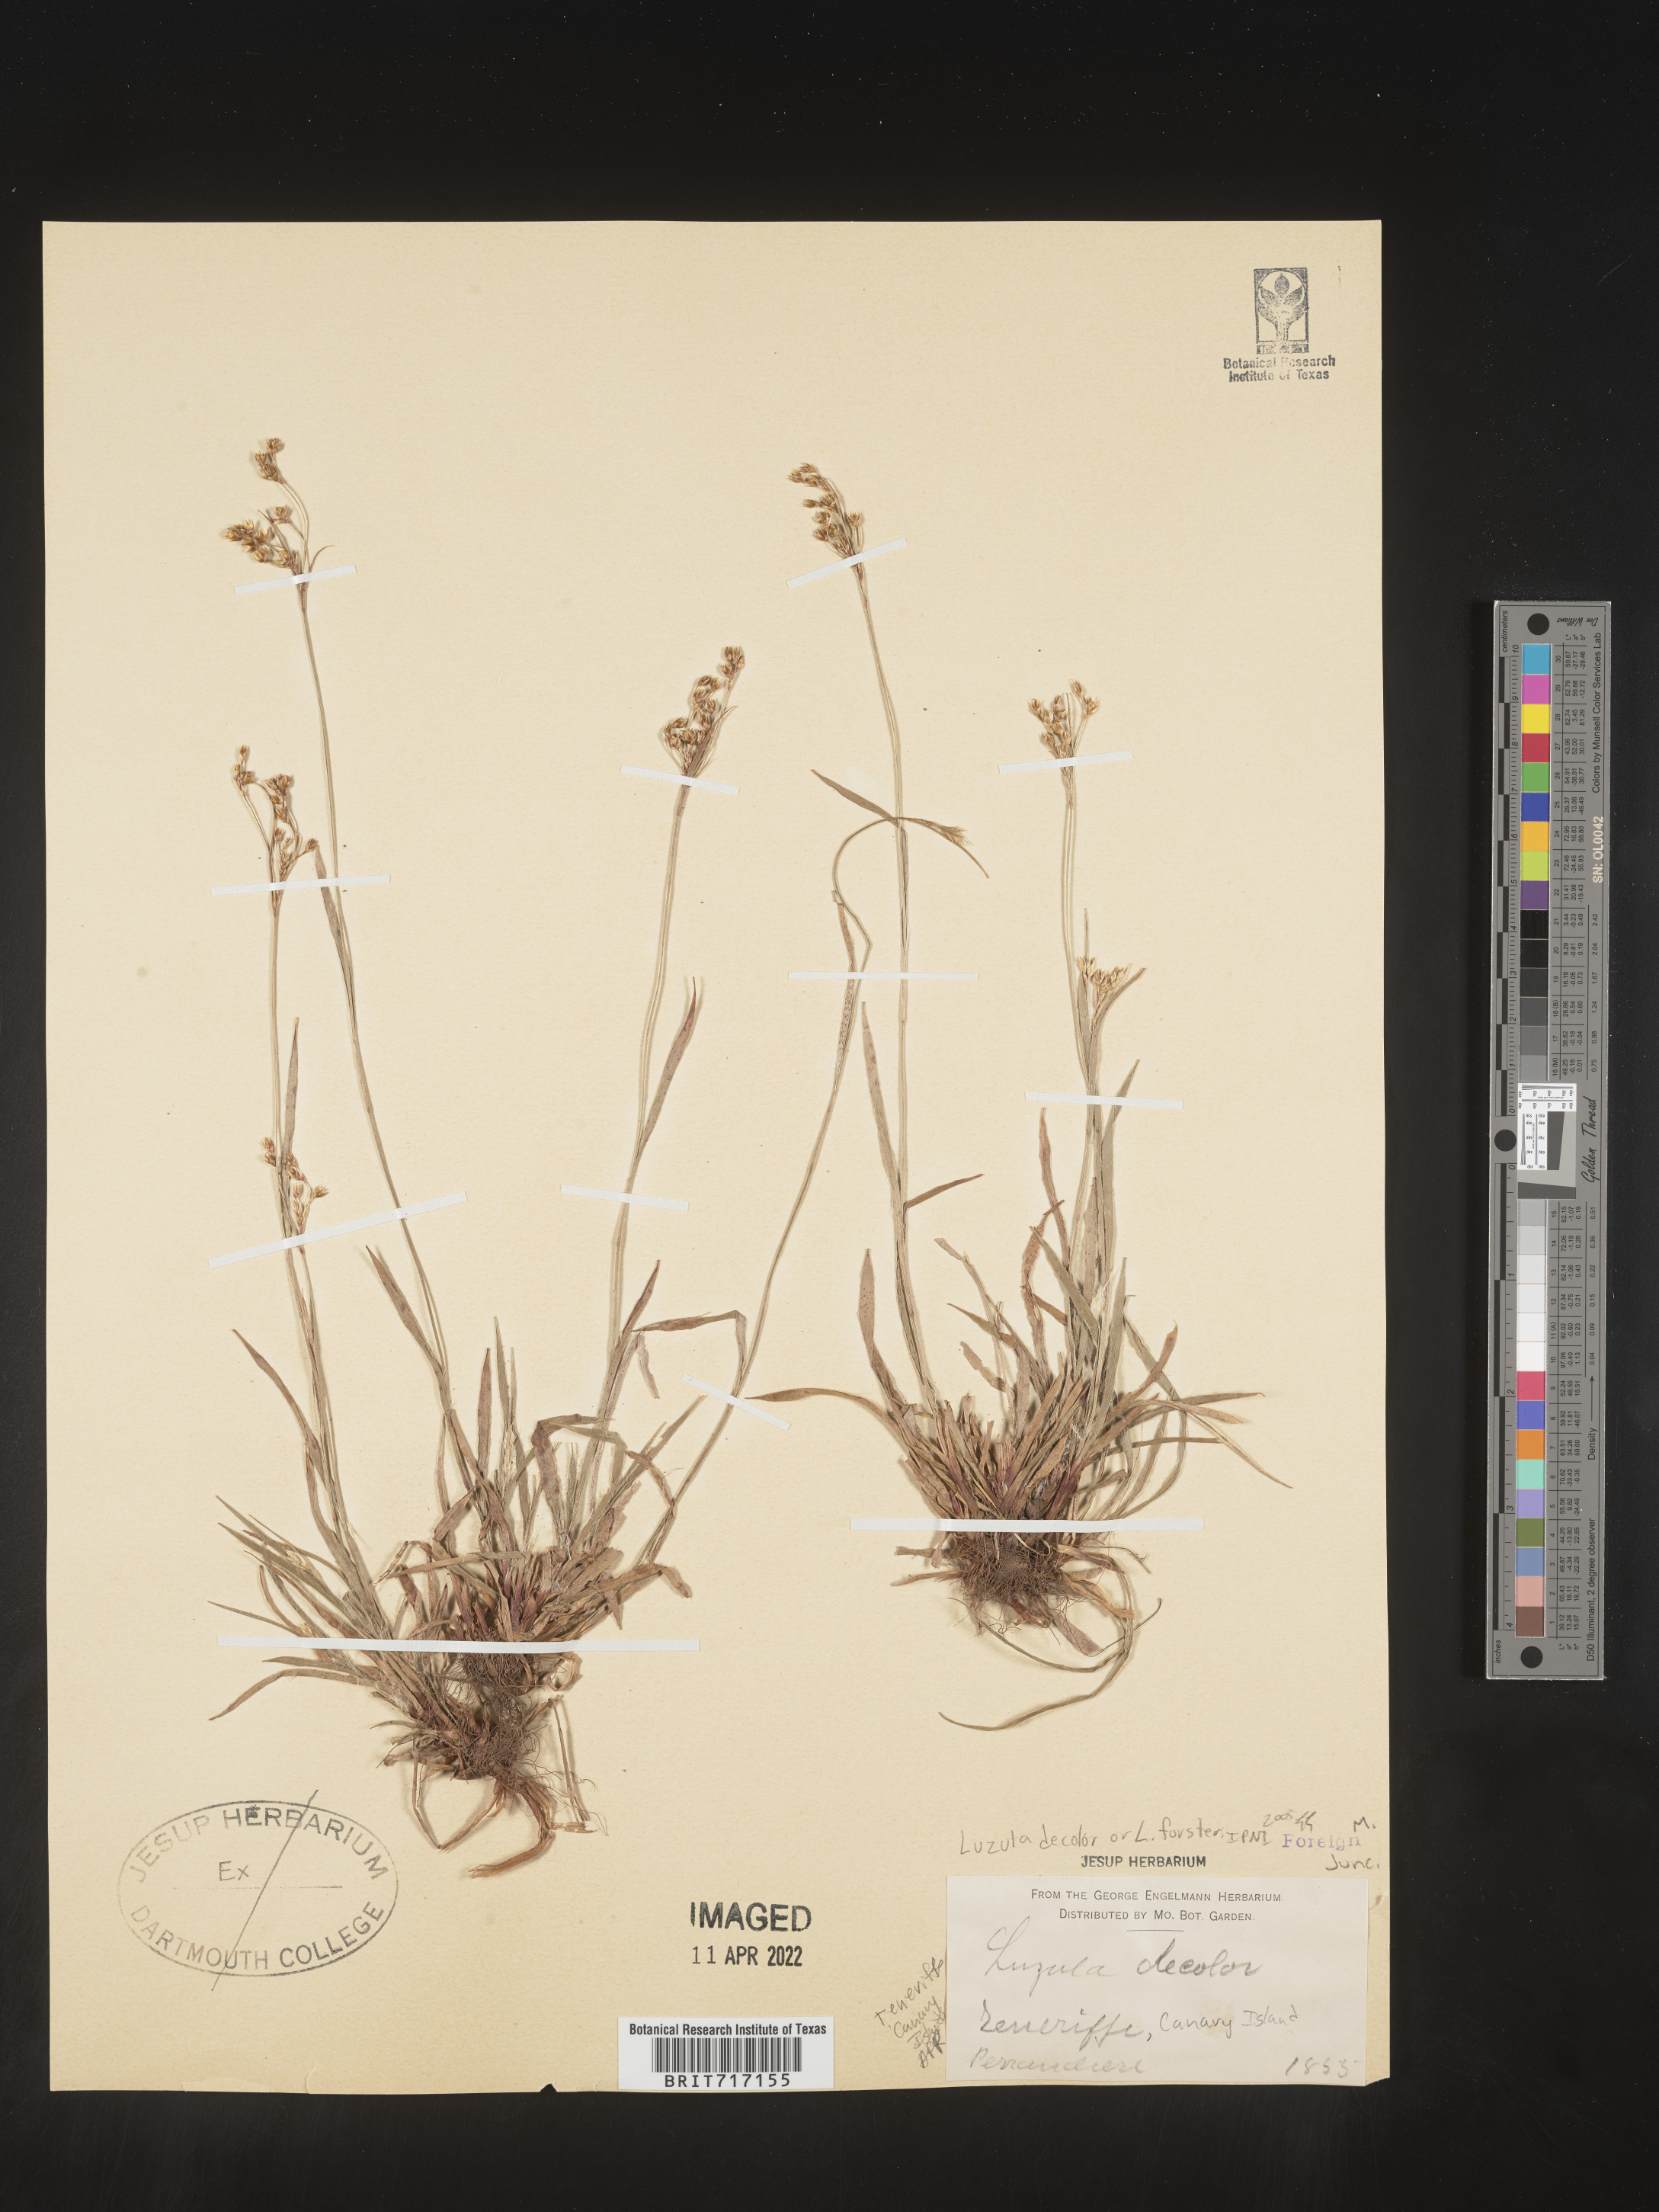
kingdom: Plantae
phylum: Tracheophyta
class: Liliopsida
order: Poales
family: Juncaceae
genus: Luzula
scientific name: Luzula
